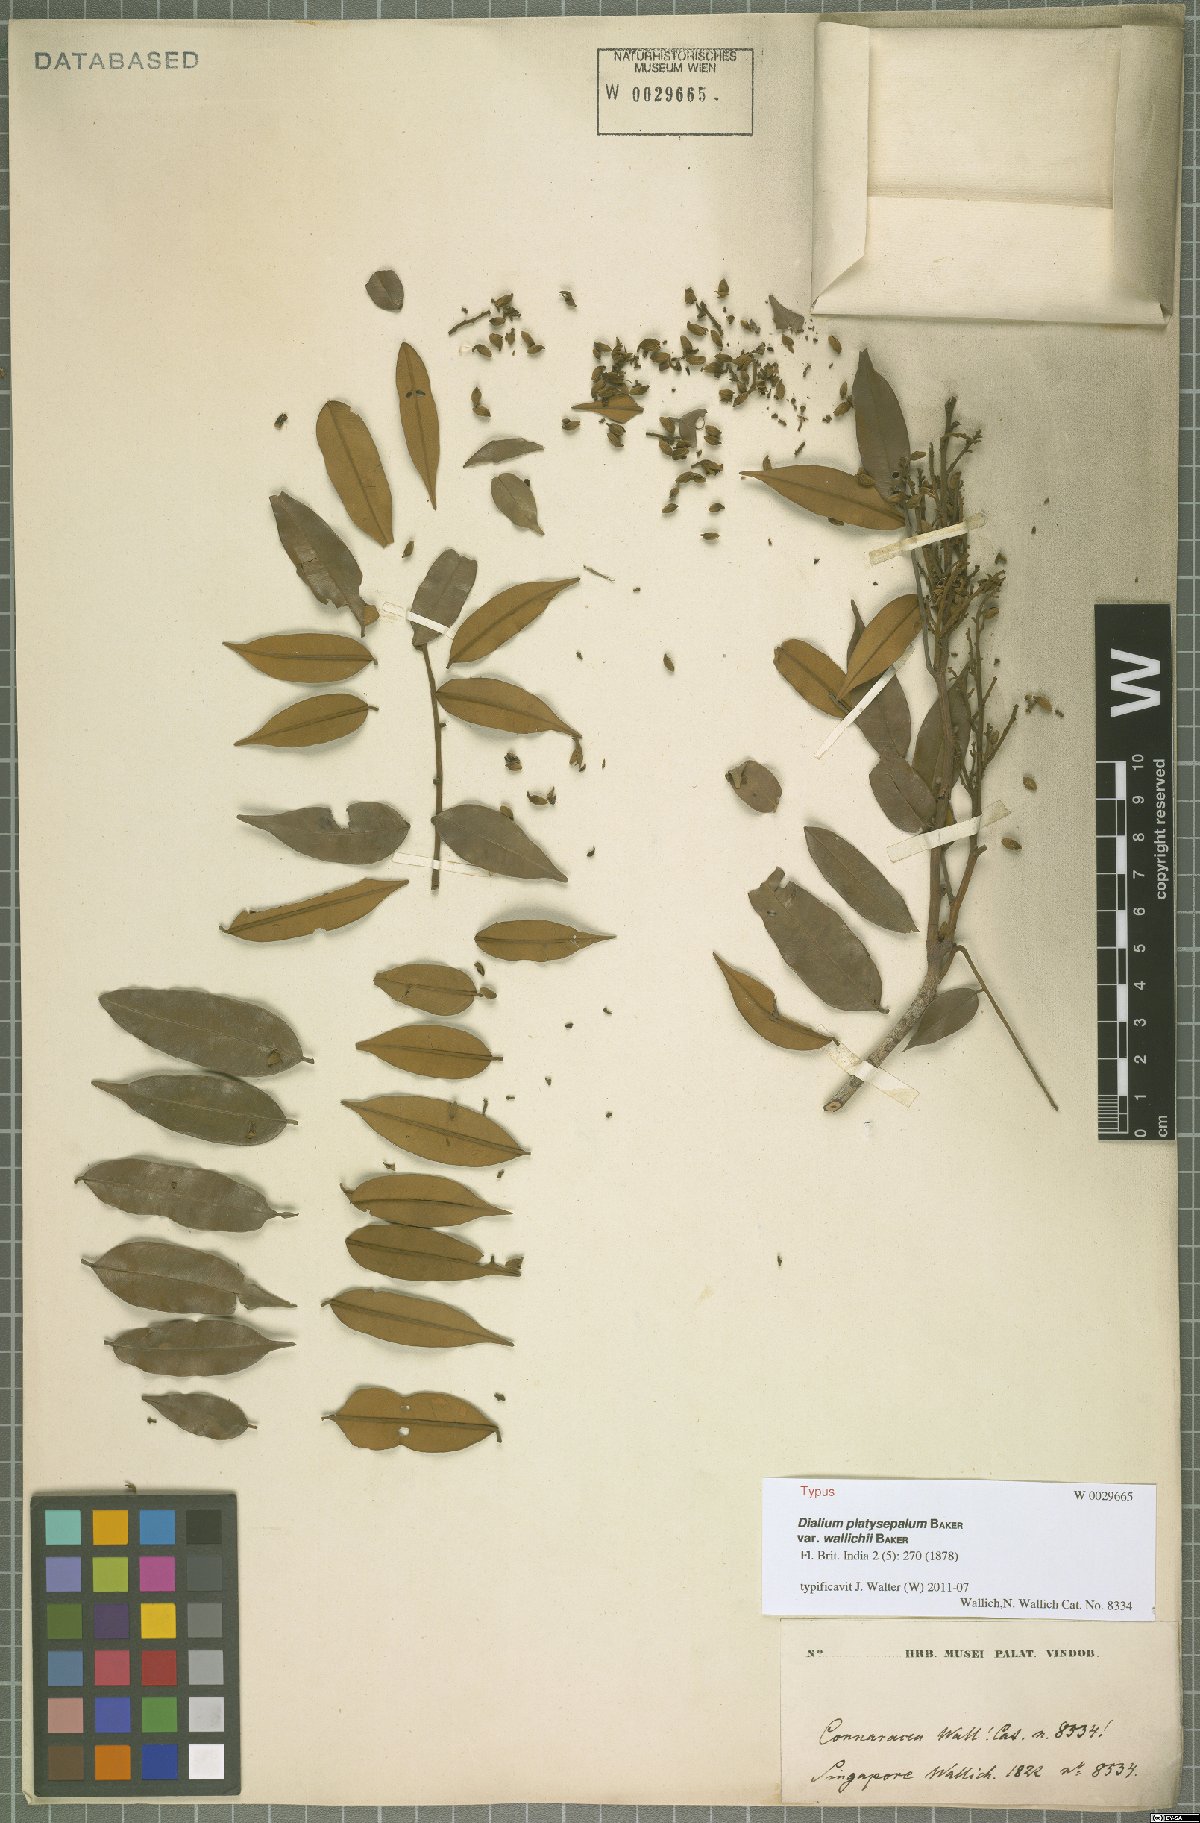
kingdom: Plantae
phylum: Tracheophyta
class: Magnoliopsida
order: Fabales
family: Fabaceae
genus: Dialium
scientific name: Dialium platysepalum
